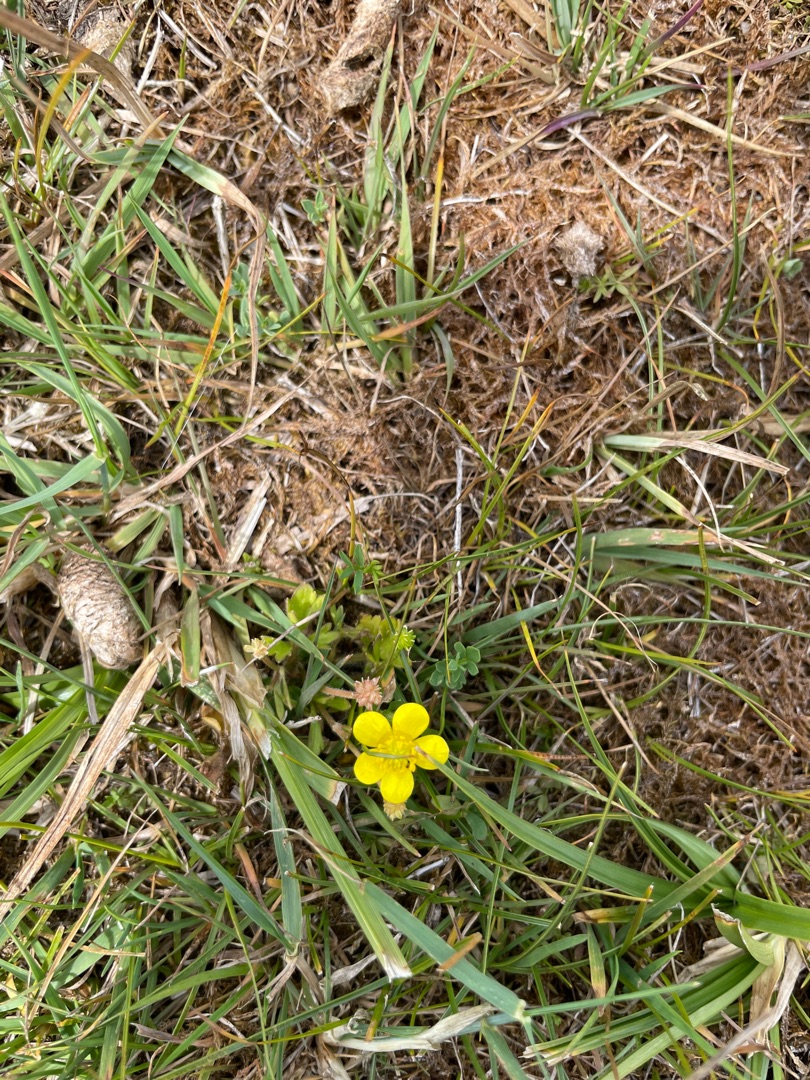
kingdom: Plantae
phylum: Tracheophyta
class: Magnoliopsida
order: Ranunculales
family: Ranunculaceae
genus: Ranunculus
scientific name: Ranunculus sardous
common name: Stivhåret ranunkel
